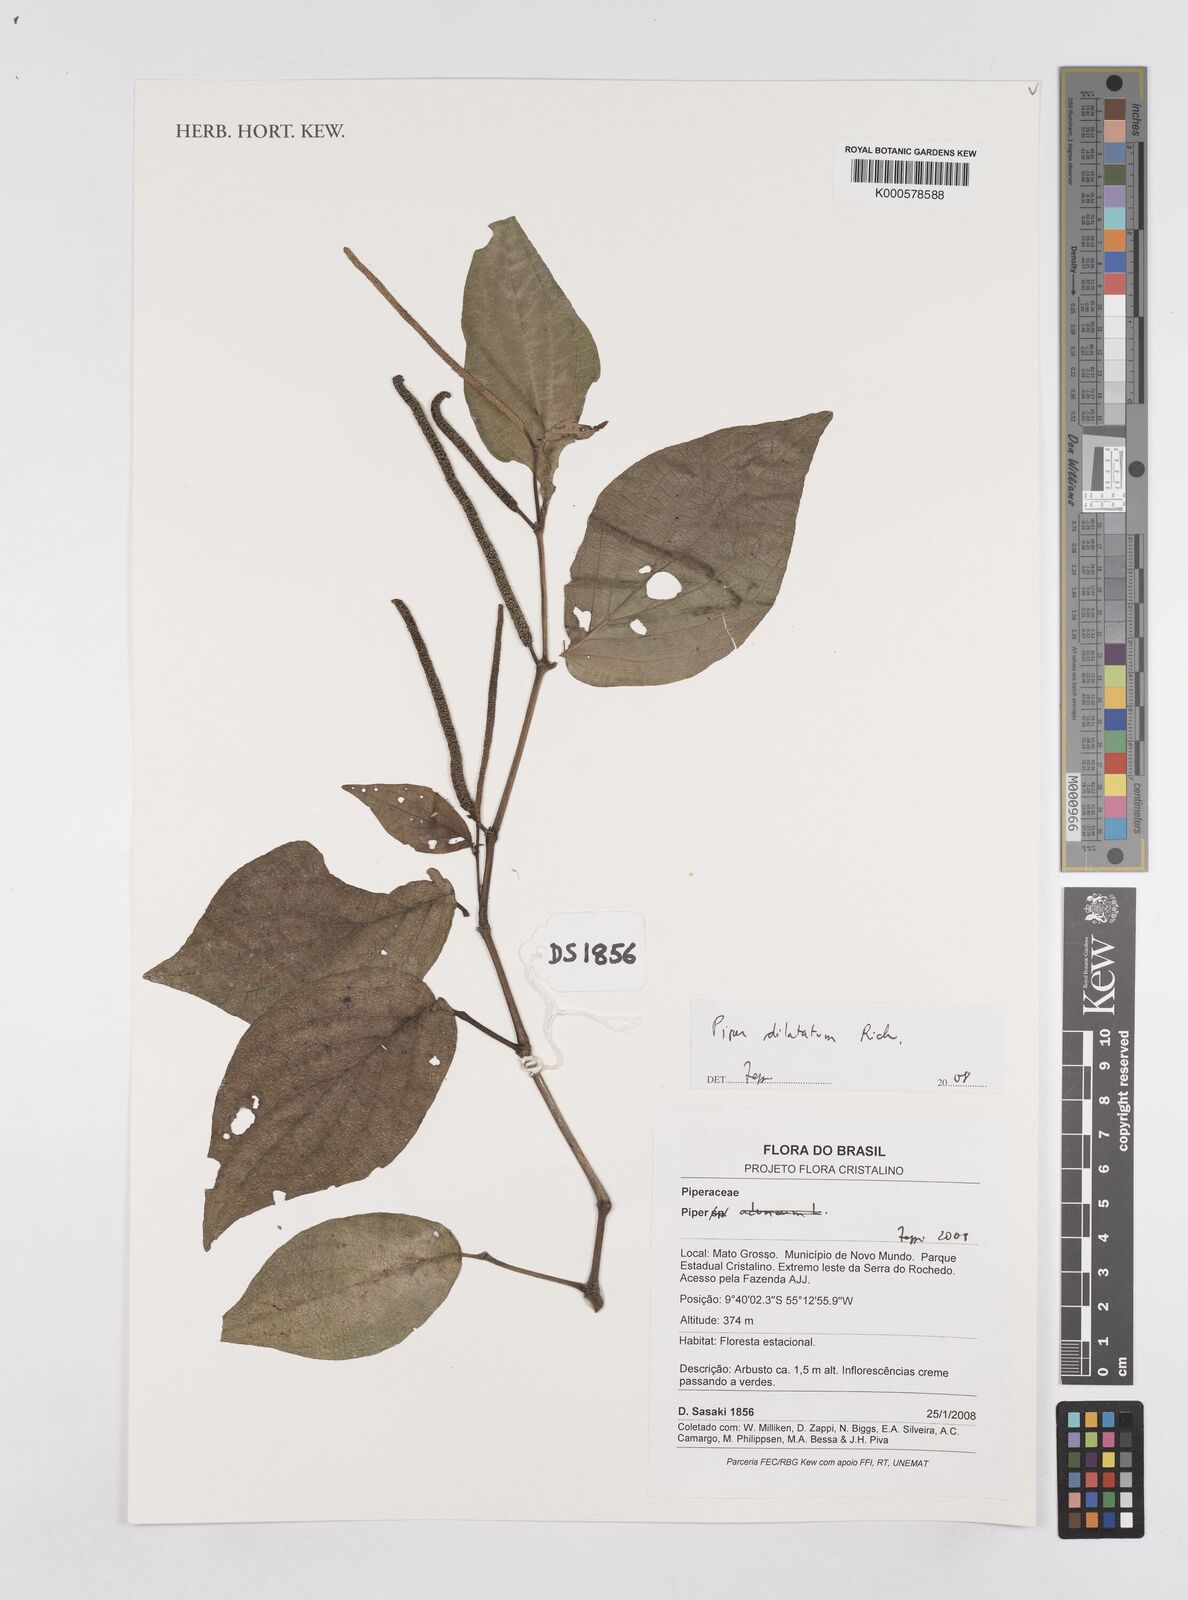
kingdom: Plantae
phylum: Tracheophyta
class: Magnoliopsida
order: Piperales
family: Piperaceae
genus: Piper
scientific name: Piper dilatatum
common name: Higuillo
